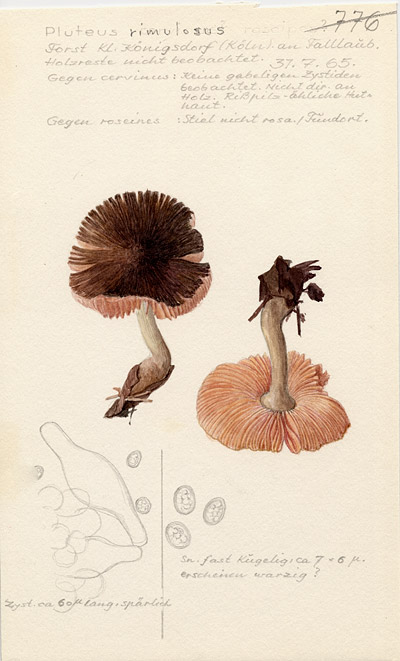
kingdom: Fungi
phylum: Basidiomycota
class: Agaricomycetes
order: Agaricales
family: Pluteaceae
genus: Pluteus
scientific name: Pluteus diettrichii
